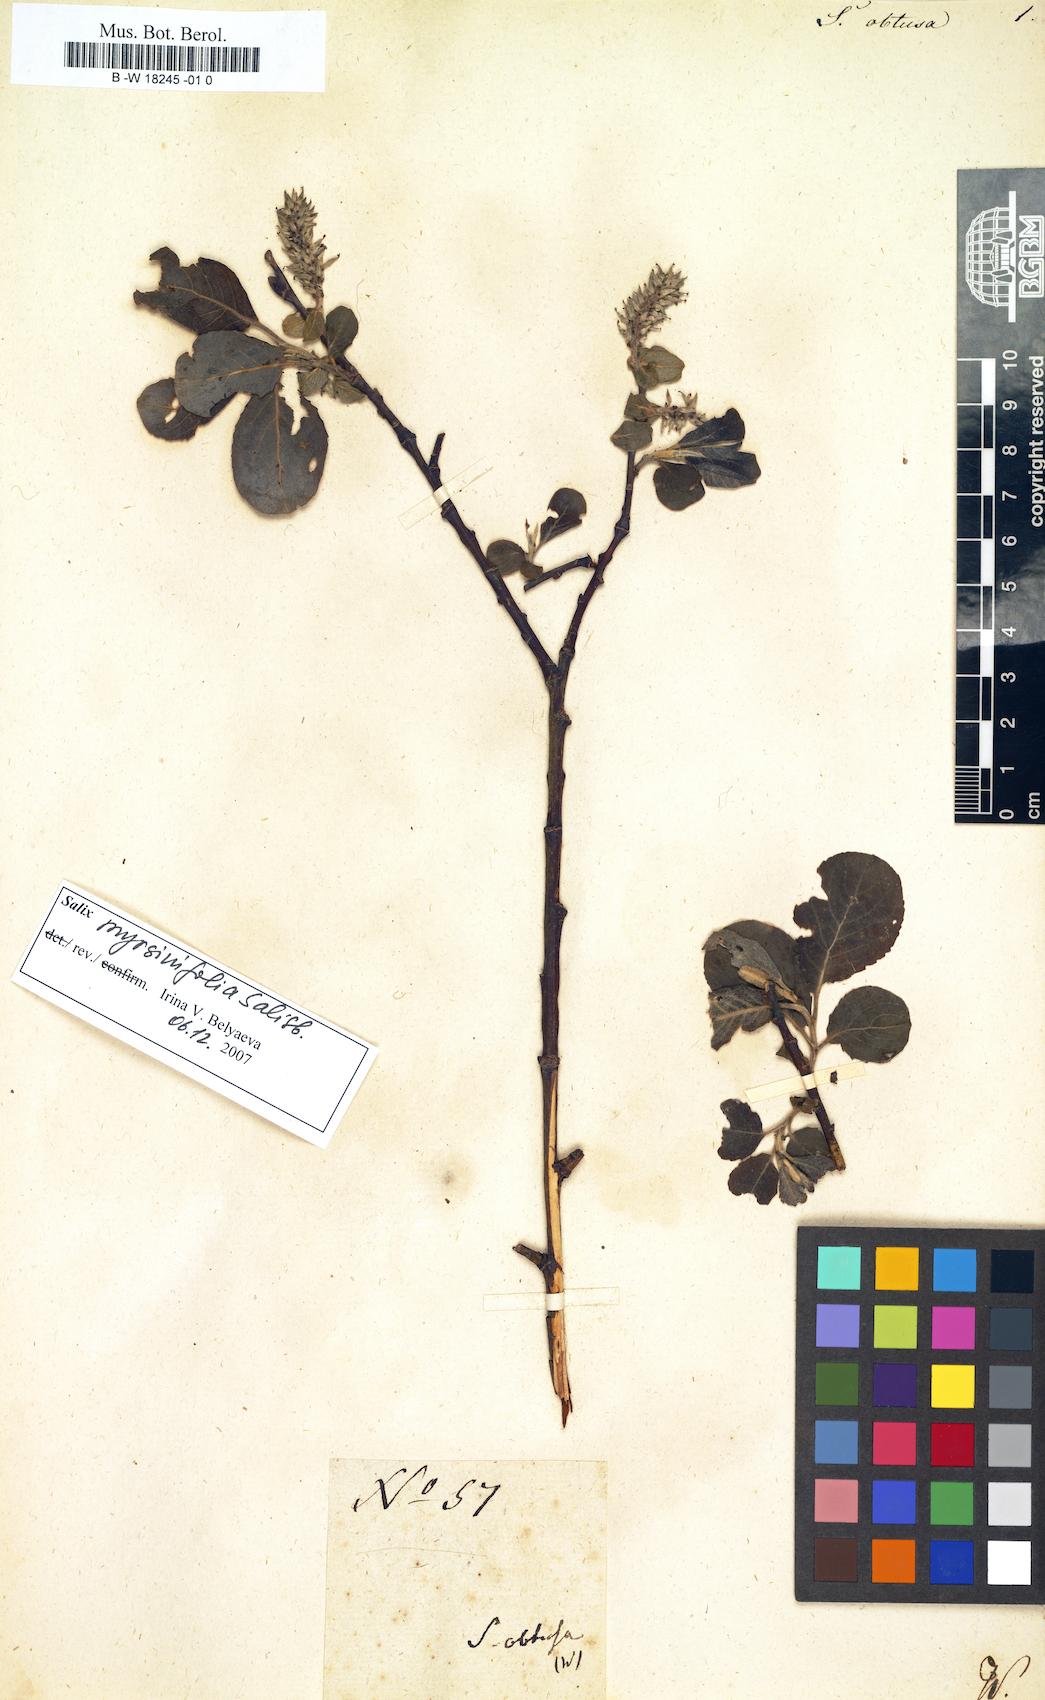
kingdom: Plantae
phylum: Tracheophyta
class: Magnoliopsida
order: Malpighiales
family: Salicaceae
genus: Salix
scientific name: Salix obtusa
